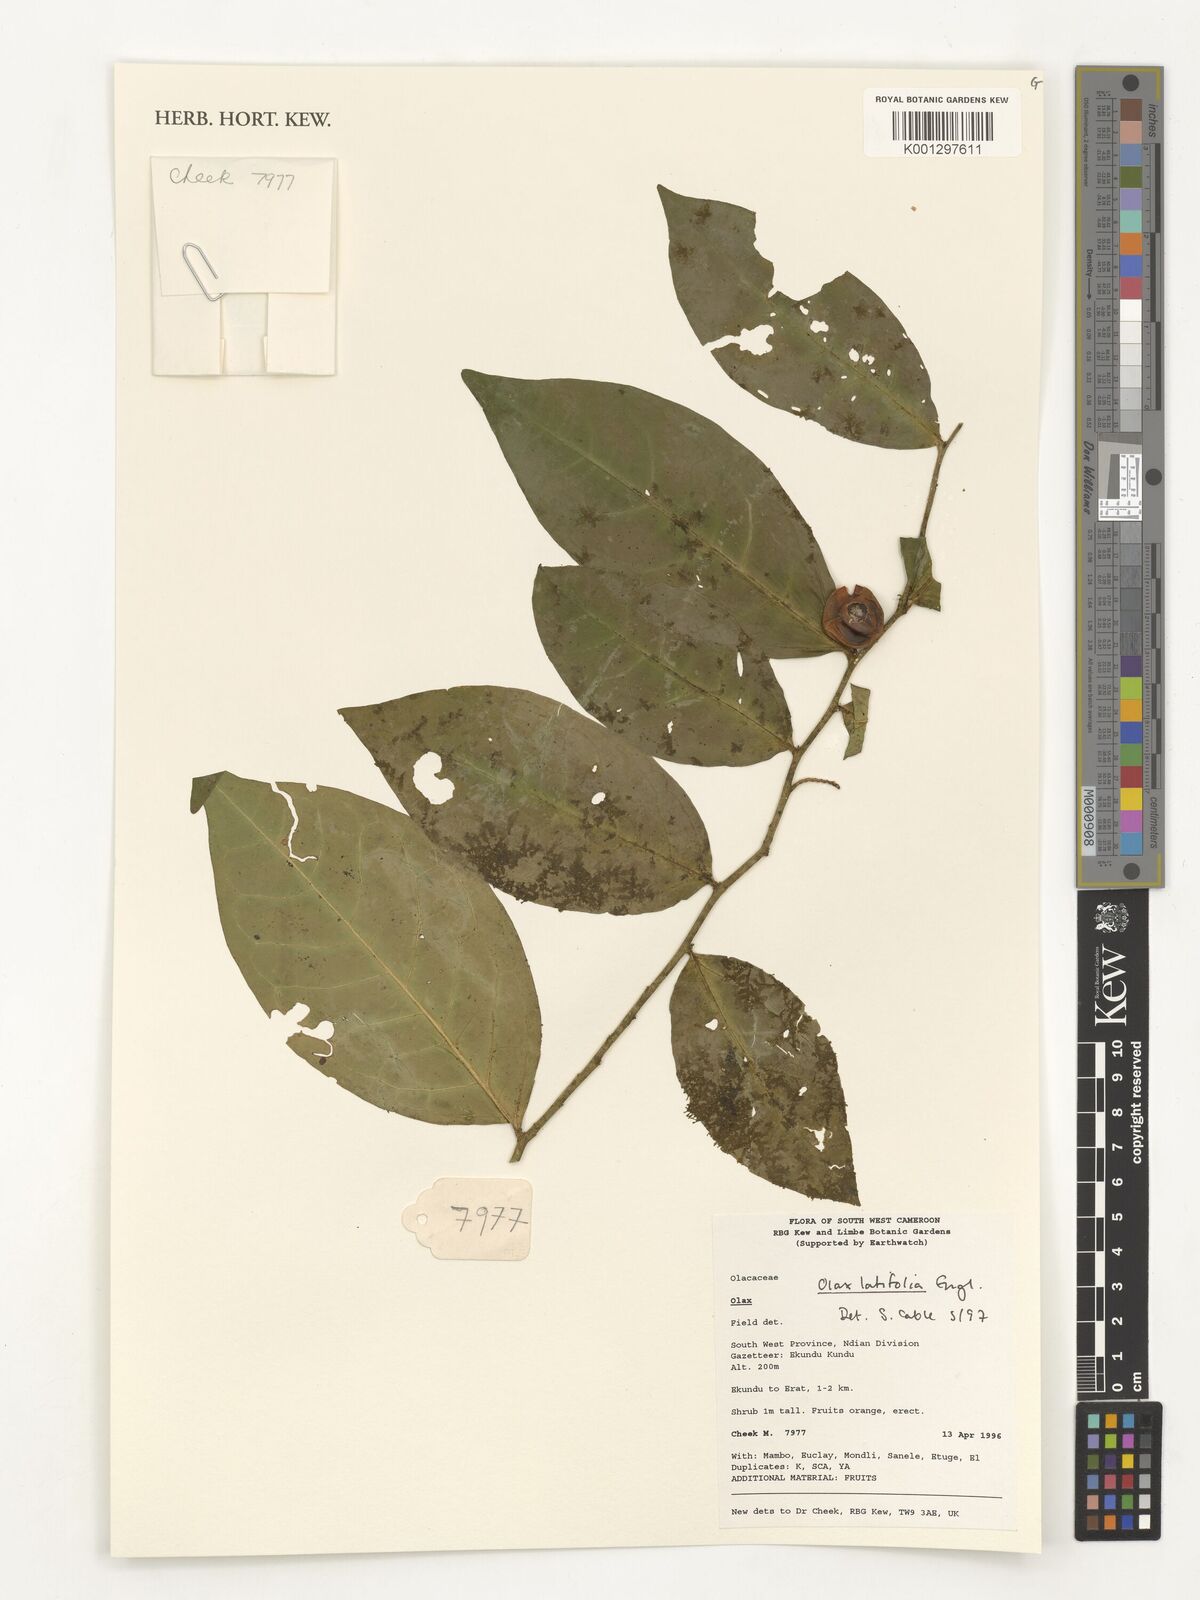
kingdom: Plantae
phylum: Tracheophyta
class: Magnoliopsida
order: Santalales
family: Olacaceae
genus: Olax
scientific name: Olax latifolia
